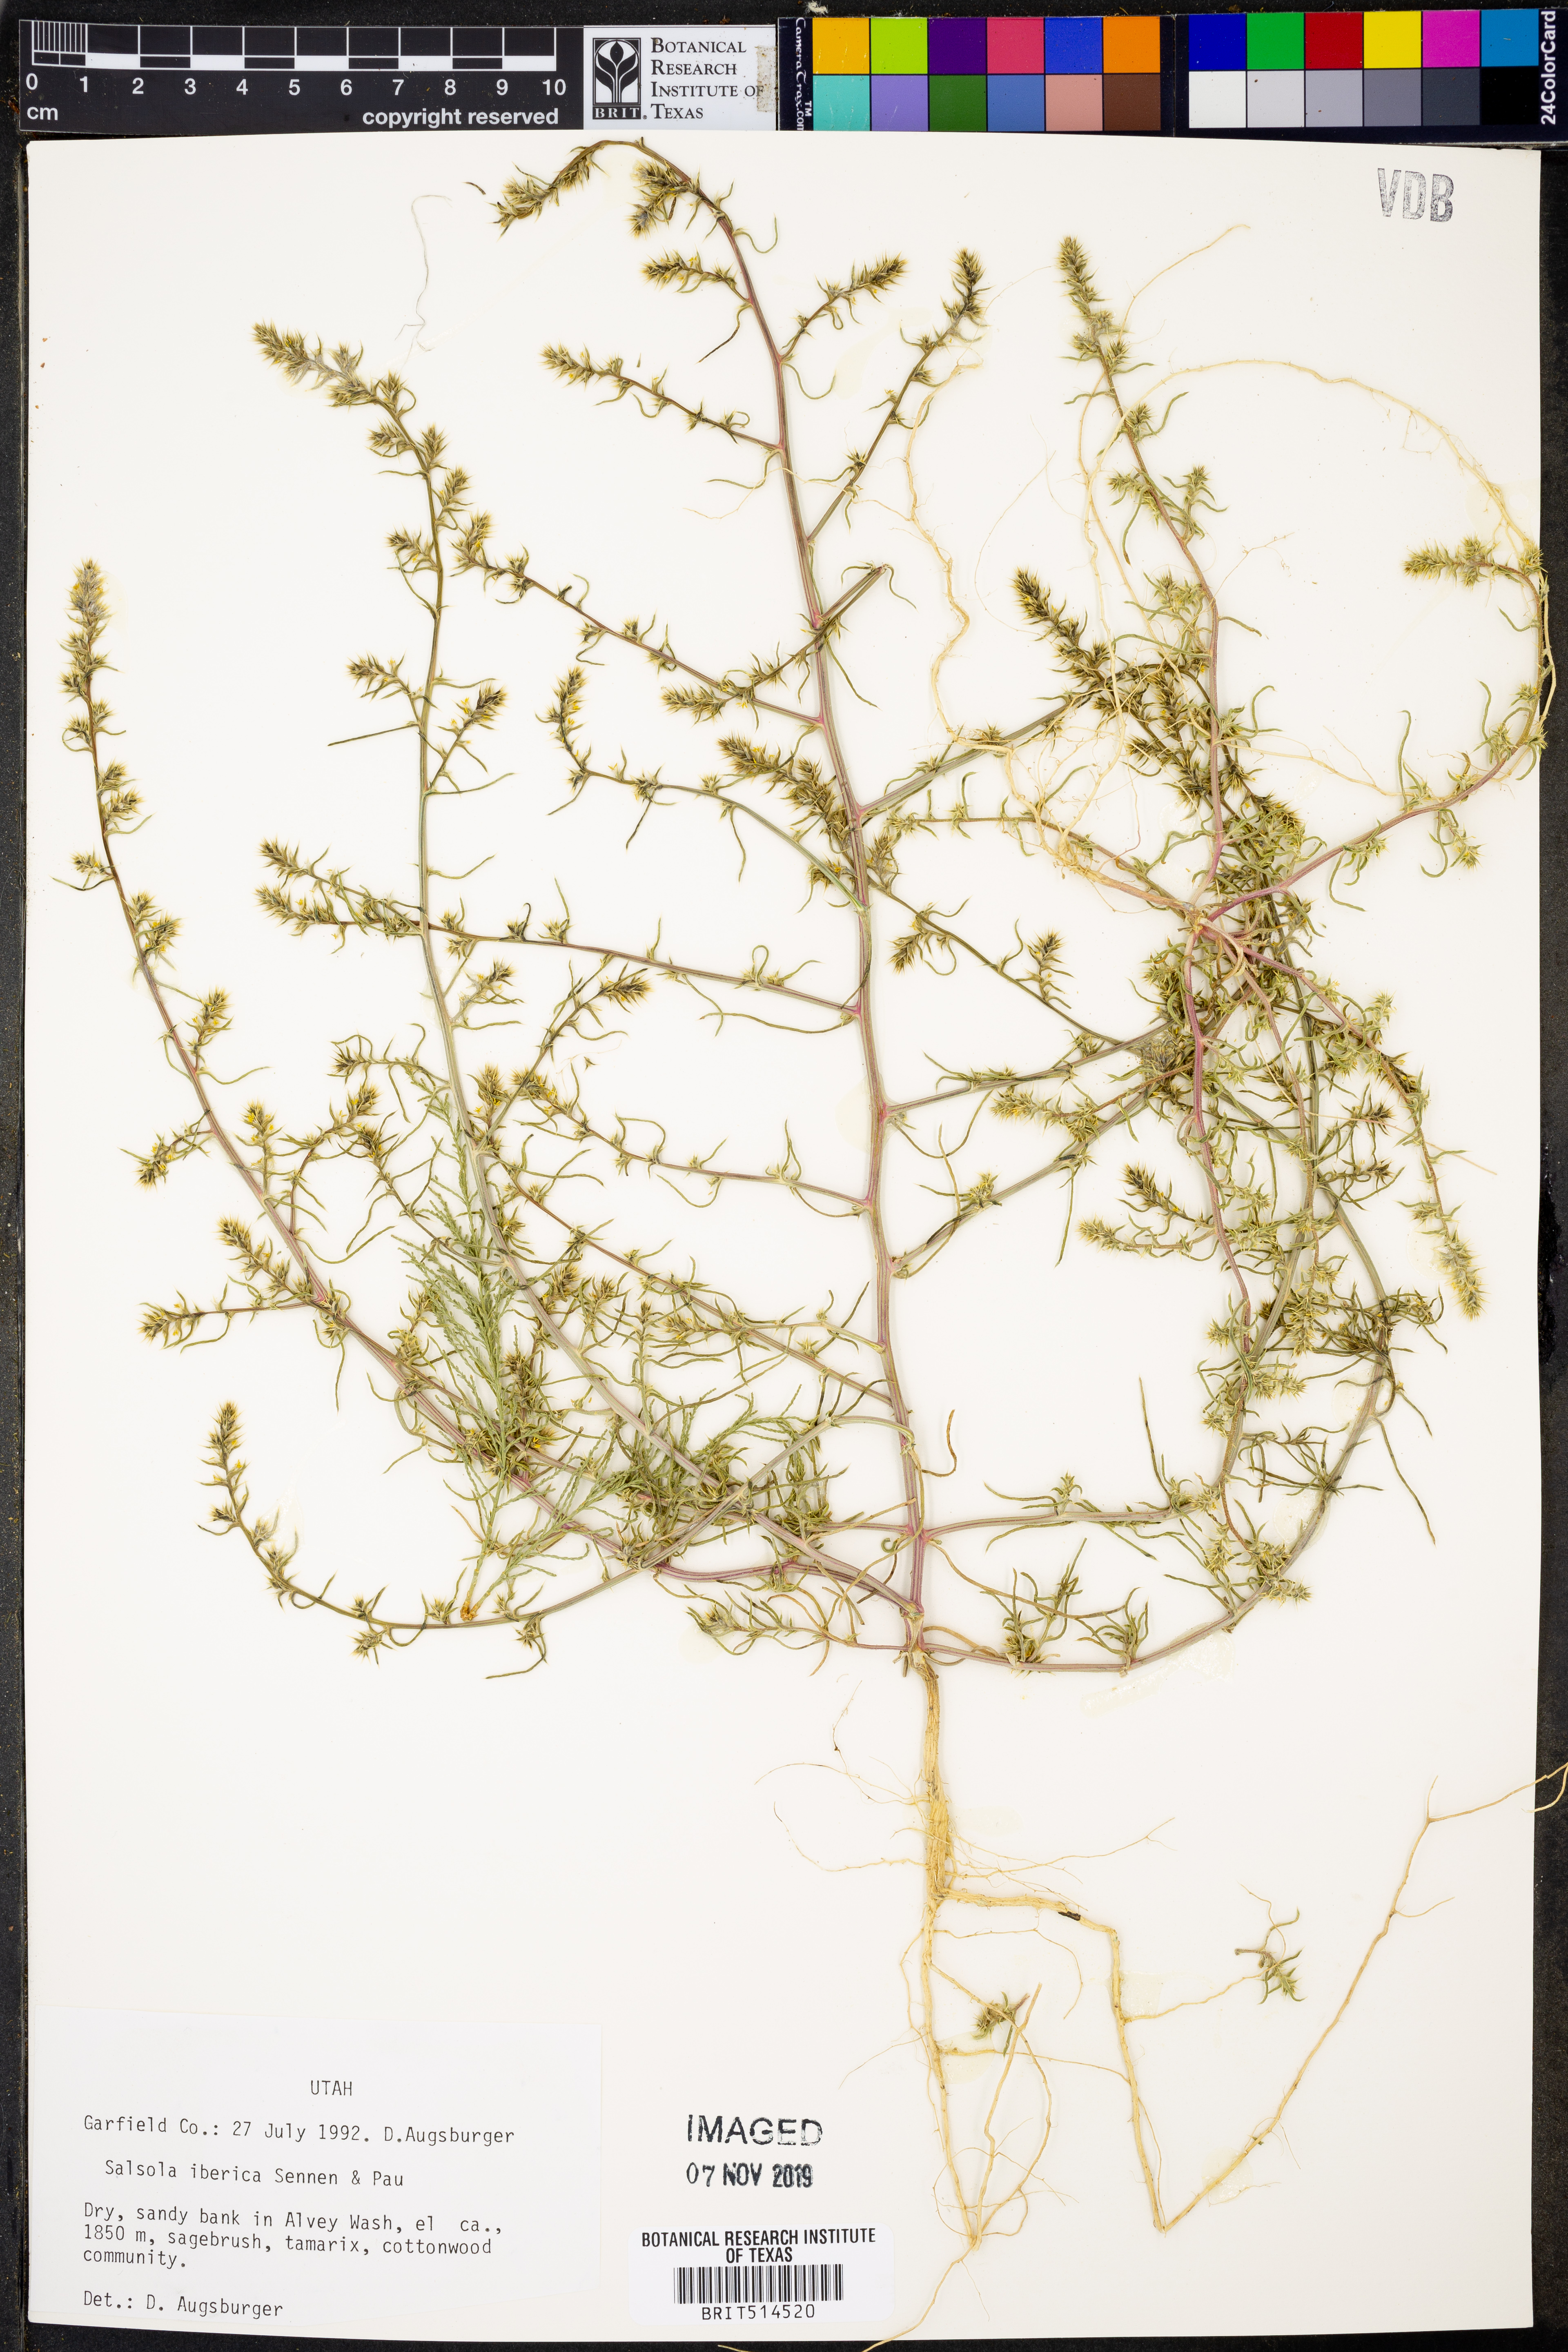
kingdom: Plantae
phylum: Tracheophyta
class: Magnoliopsida
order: Caryophyllales
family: Amaranthaceae
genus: Salsola
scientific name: Salsola tragus
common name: Prickly russian thistle
